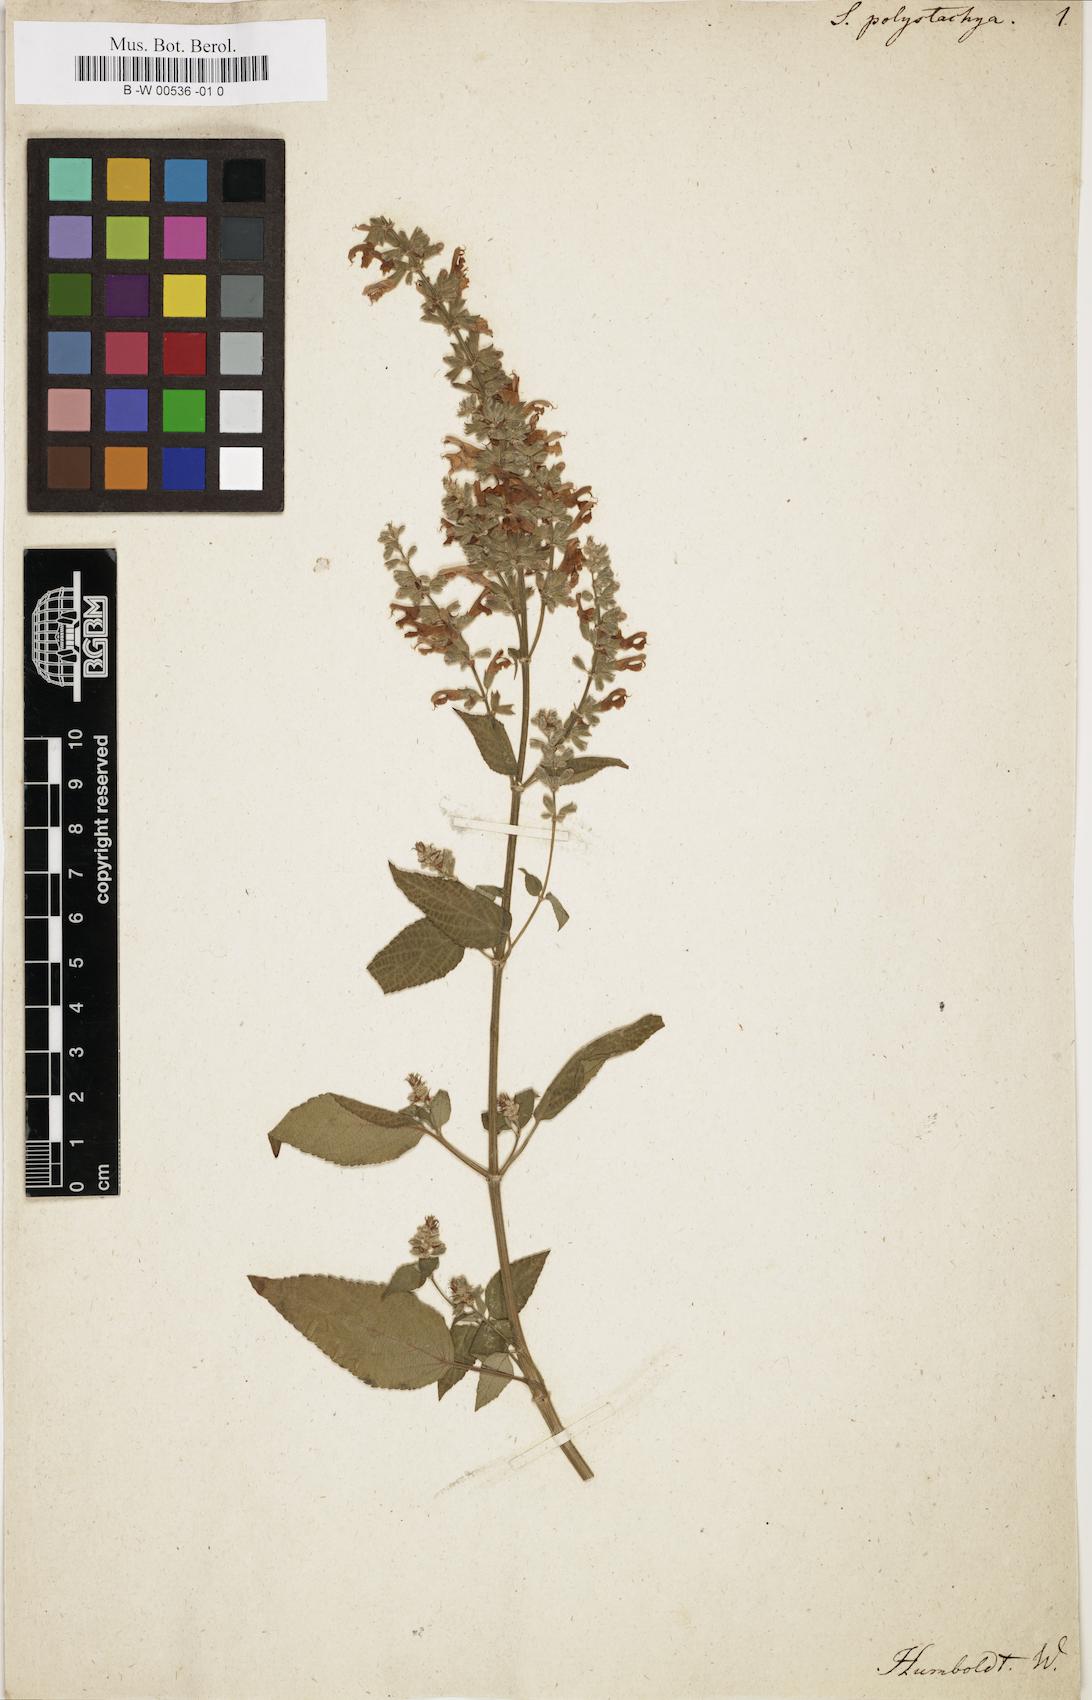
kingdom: Plantae
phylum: Tracheophyta
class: Magnoliopsida
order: Lamiales
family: Lamiaceae
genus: Salvia
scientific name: Salvia polystachia
